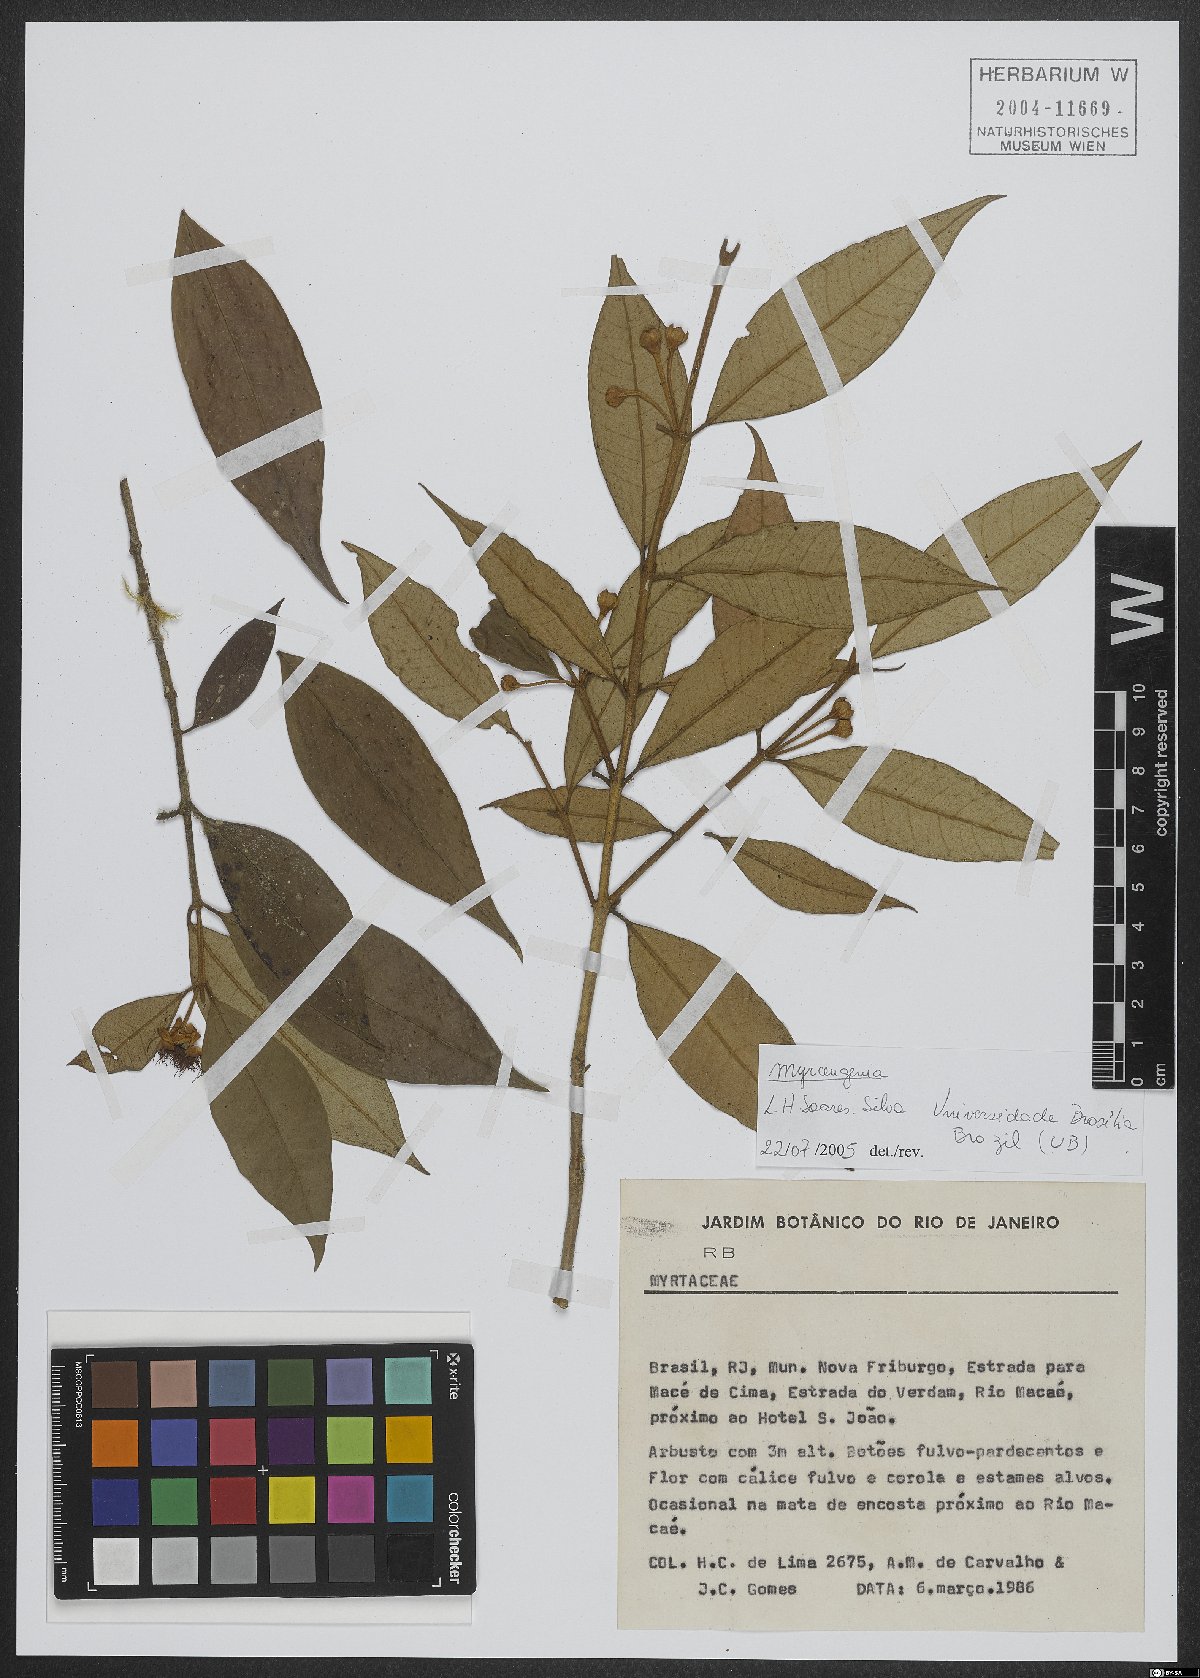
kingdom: Plantae
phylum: Tracheophyta
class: Magnoliopsida
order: Myrtales
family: Myrtaceae
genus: Myrceugenia
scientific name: Myrceugenia
